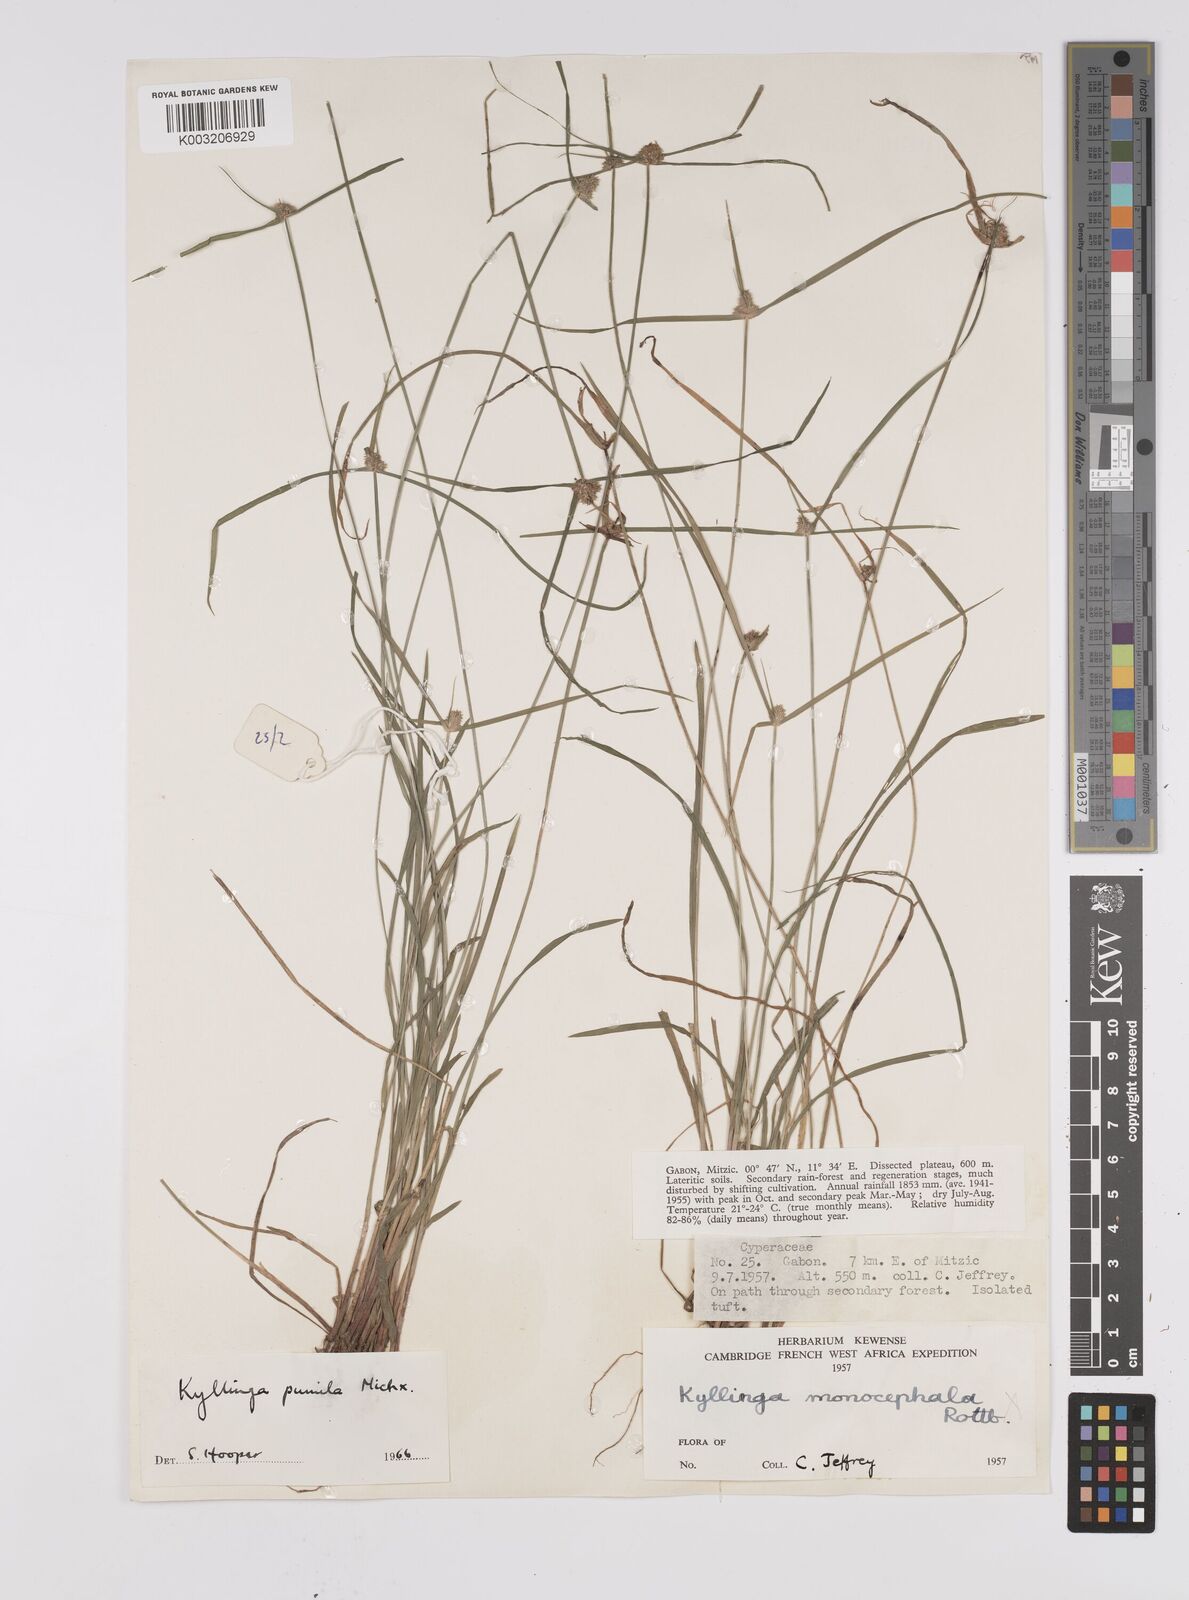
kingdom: Plantae
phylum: Tracheophyta
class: Liliopsida
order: Poales
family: Cyperaceae
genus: Cyperus
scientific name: Cyperus hortensis
